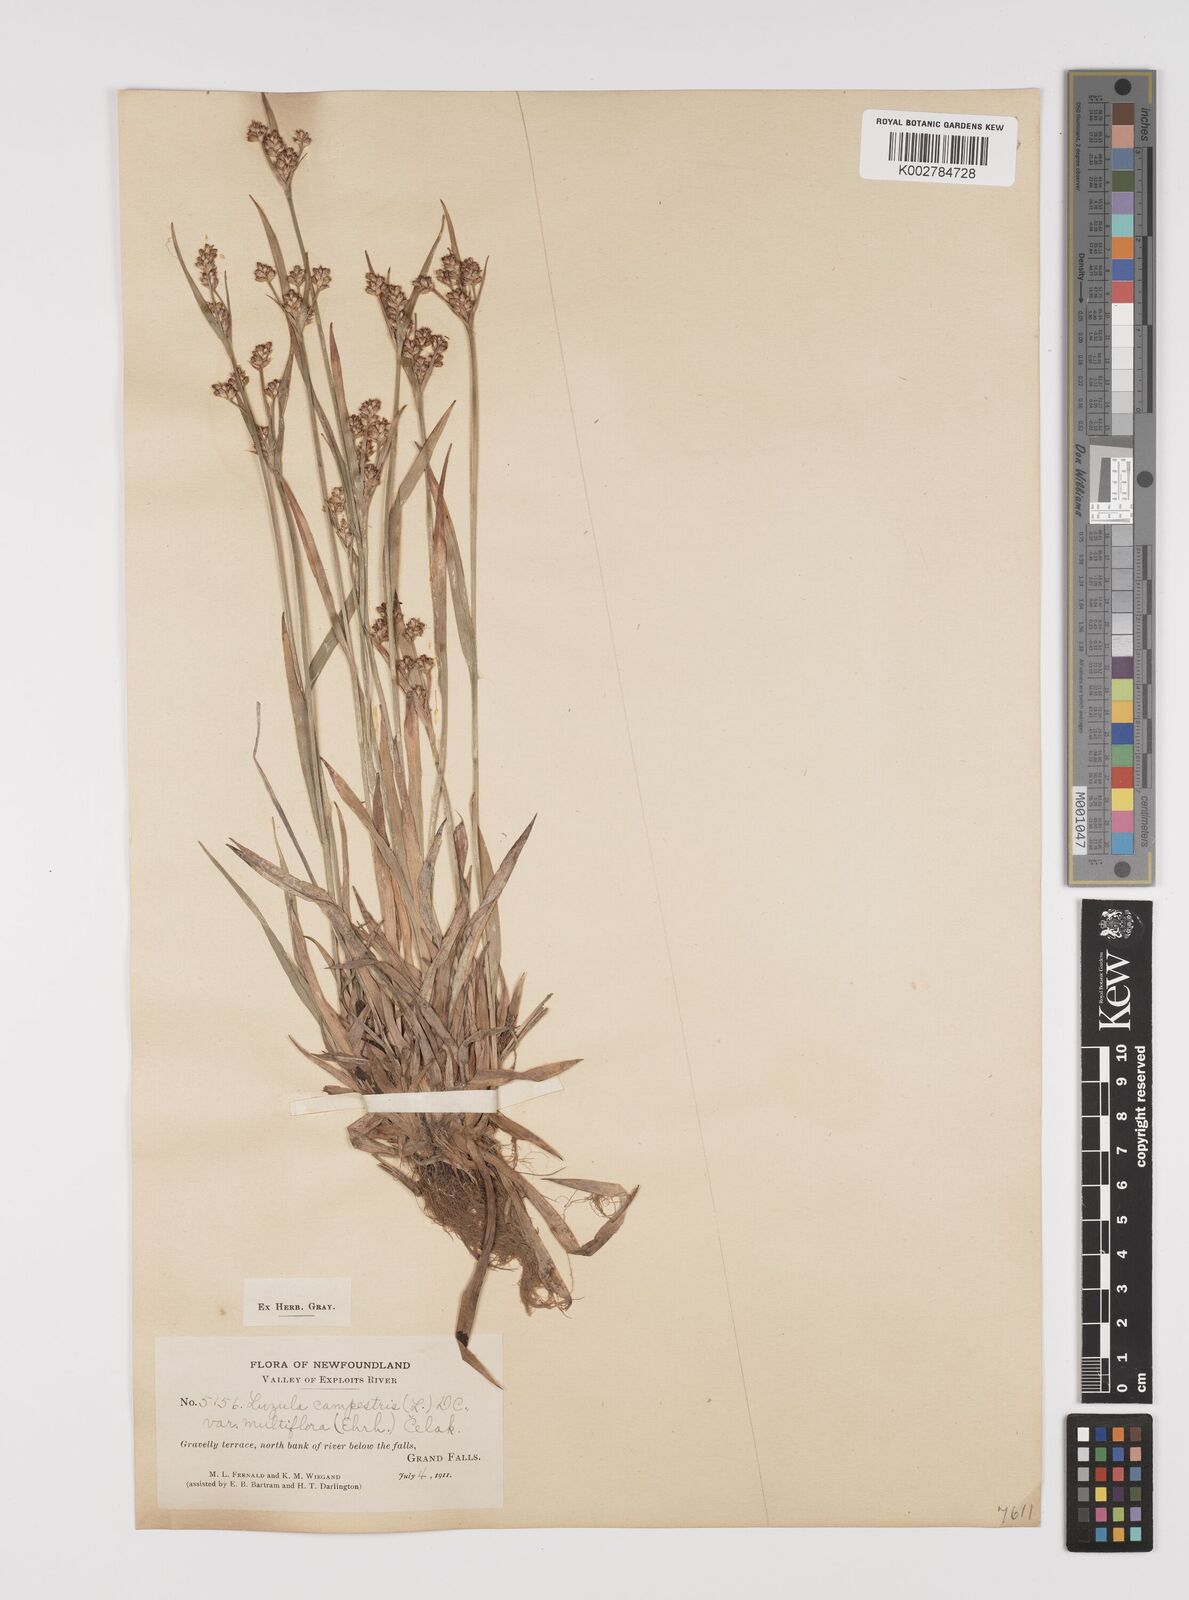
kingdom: Plantae
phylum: Tracheophyta
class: Liliopsida
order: Poales
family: Juncaceae
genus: Luzula
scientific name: Luzula campestris
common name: Field wood-rush
